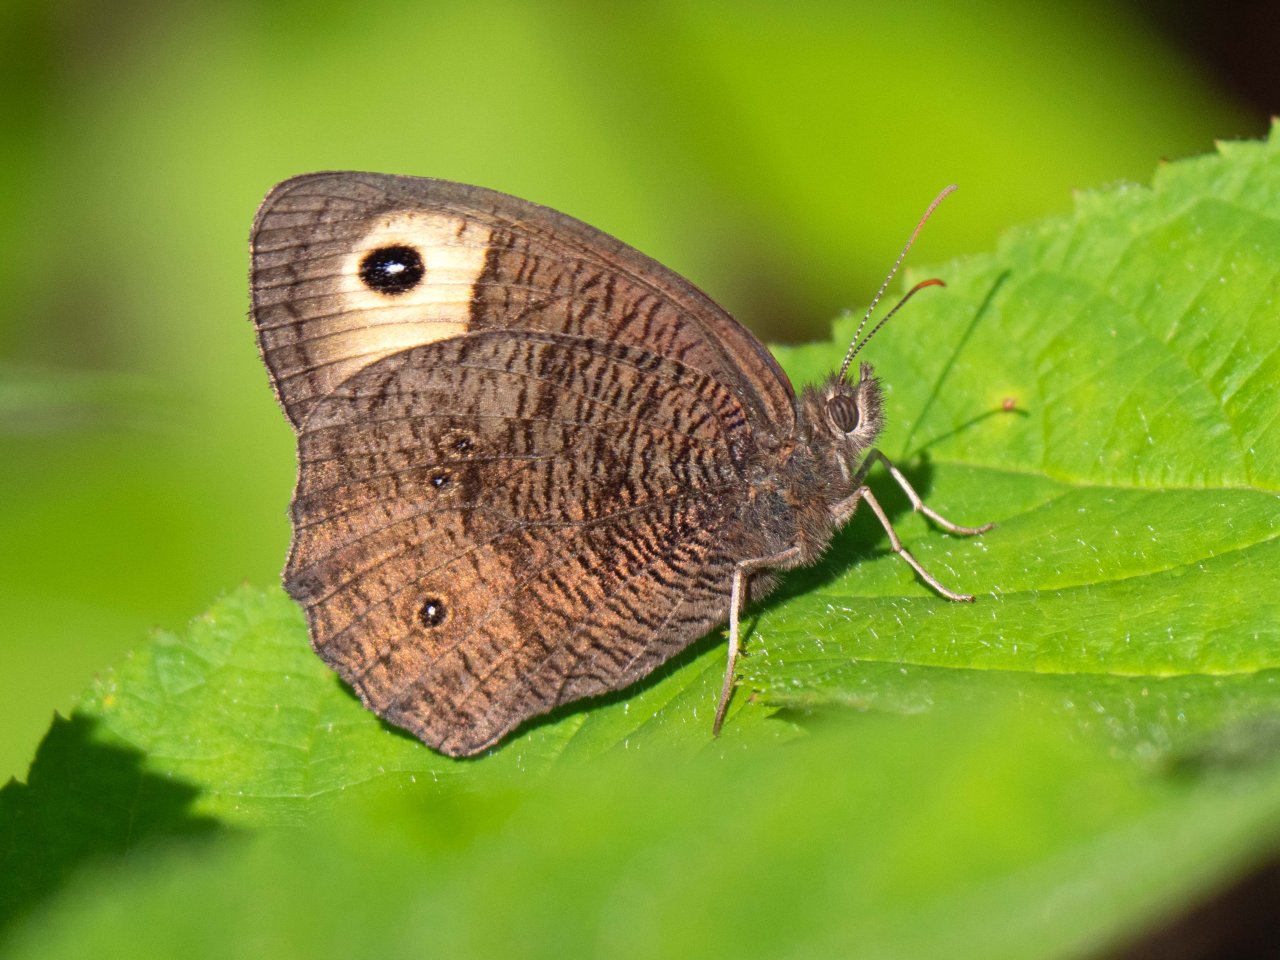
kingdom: Animalia
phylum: Arthropoda
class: Insecta
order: Lepidoptera
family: Nymphalidae
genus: Cercyonis
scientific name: Cercyonis pegala
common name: Common Wood-Nymph
